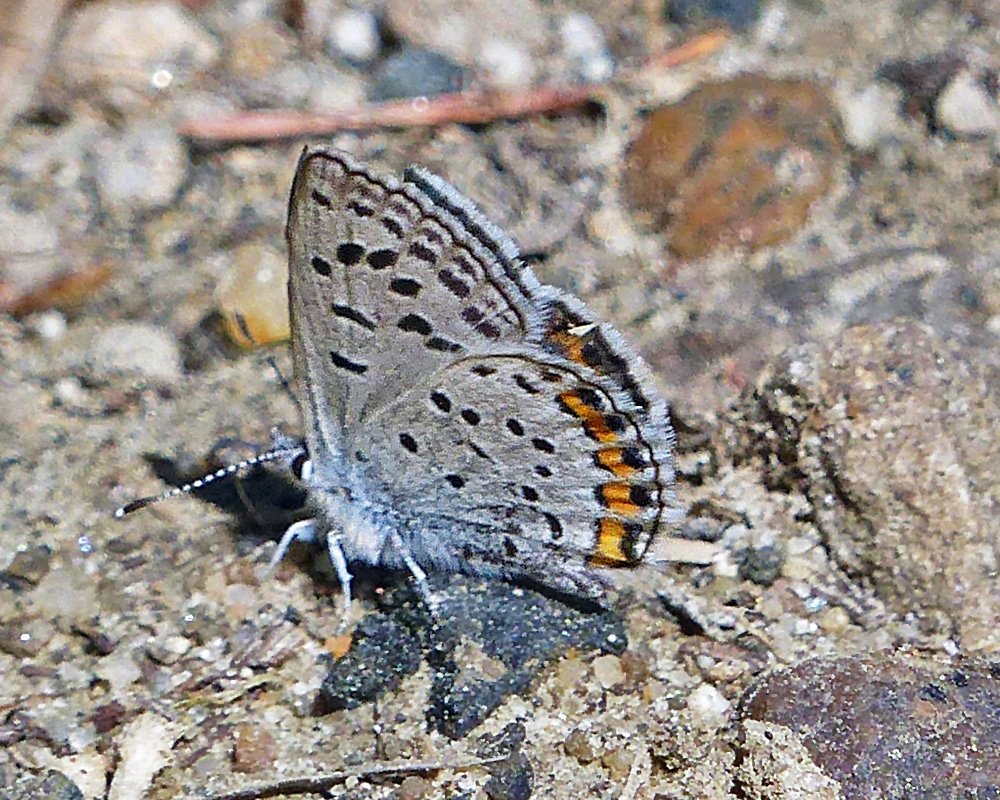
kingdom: Animalia
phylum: Arthropoda
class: Insecta
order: Lepidoptera
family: Lycaenidae
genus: Plebejus
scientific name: Plebejus lupini
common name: Lupine Blue
